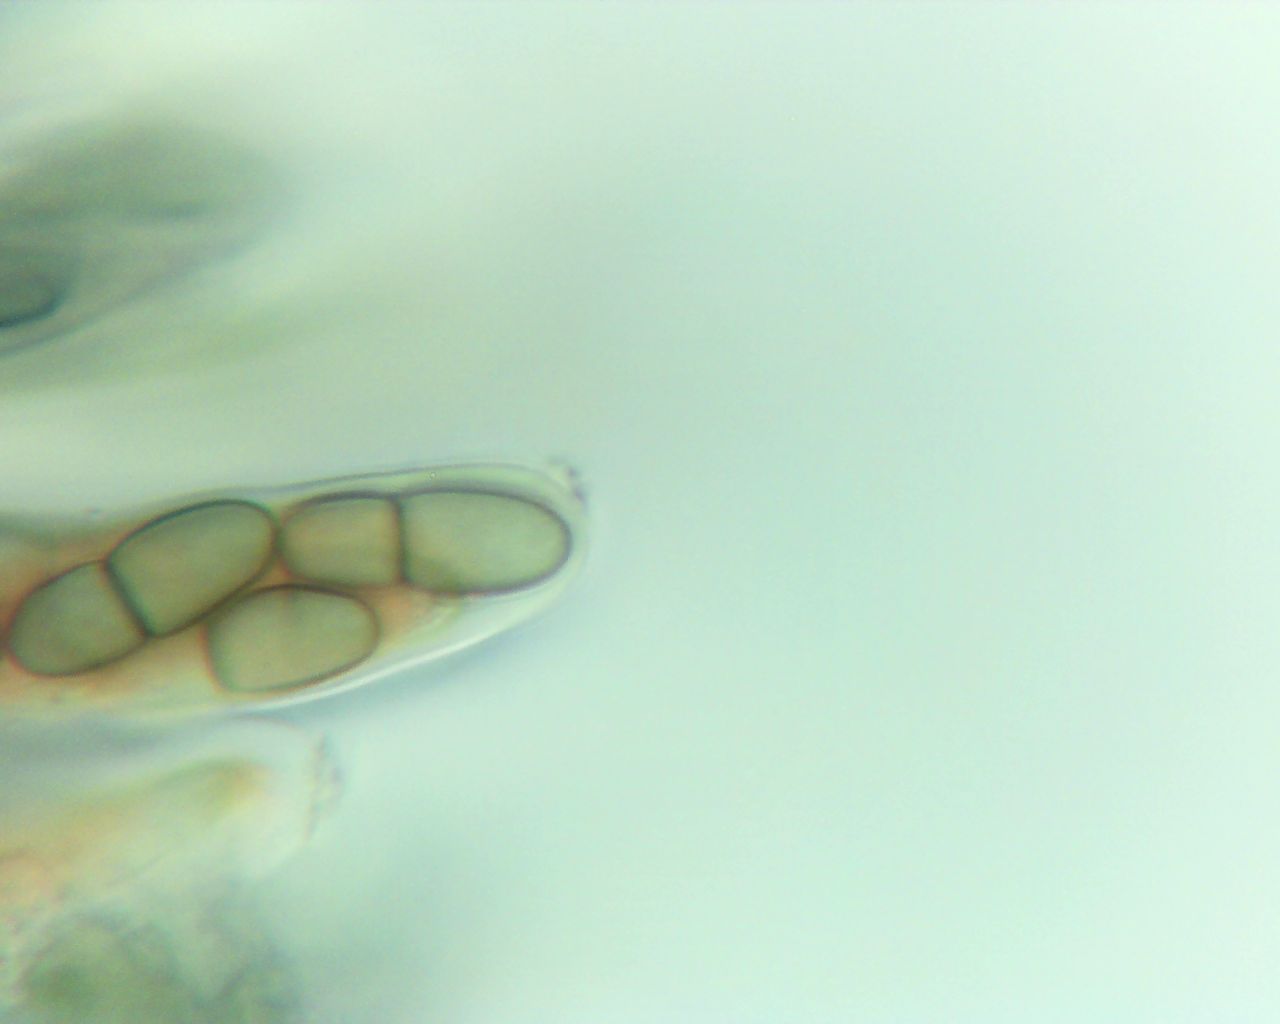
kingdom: Fungi
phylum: Ascomycota
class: Dothideomycetes
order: Dothideales
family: Dothideaceae
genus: Dothidea
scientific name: Dothidea sambuci
